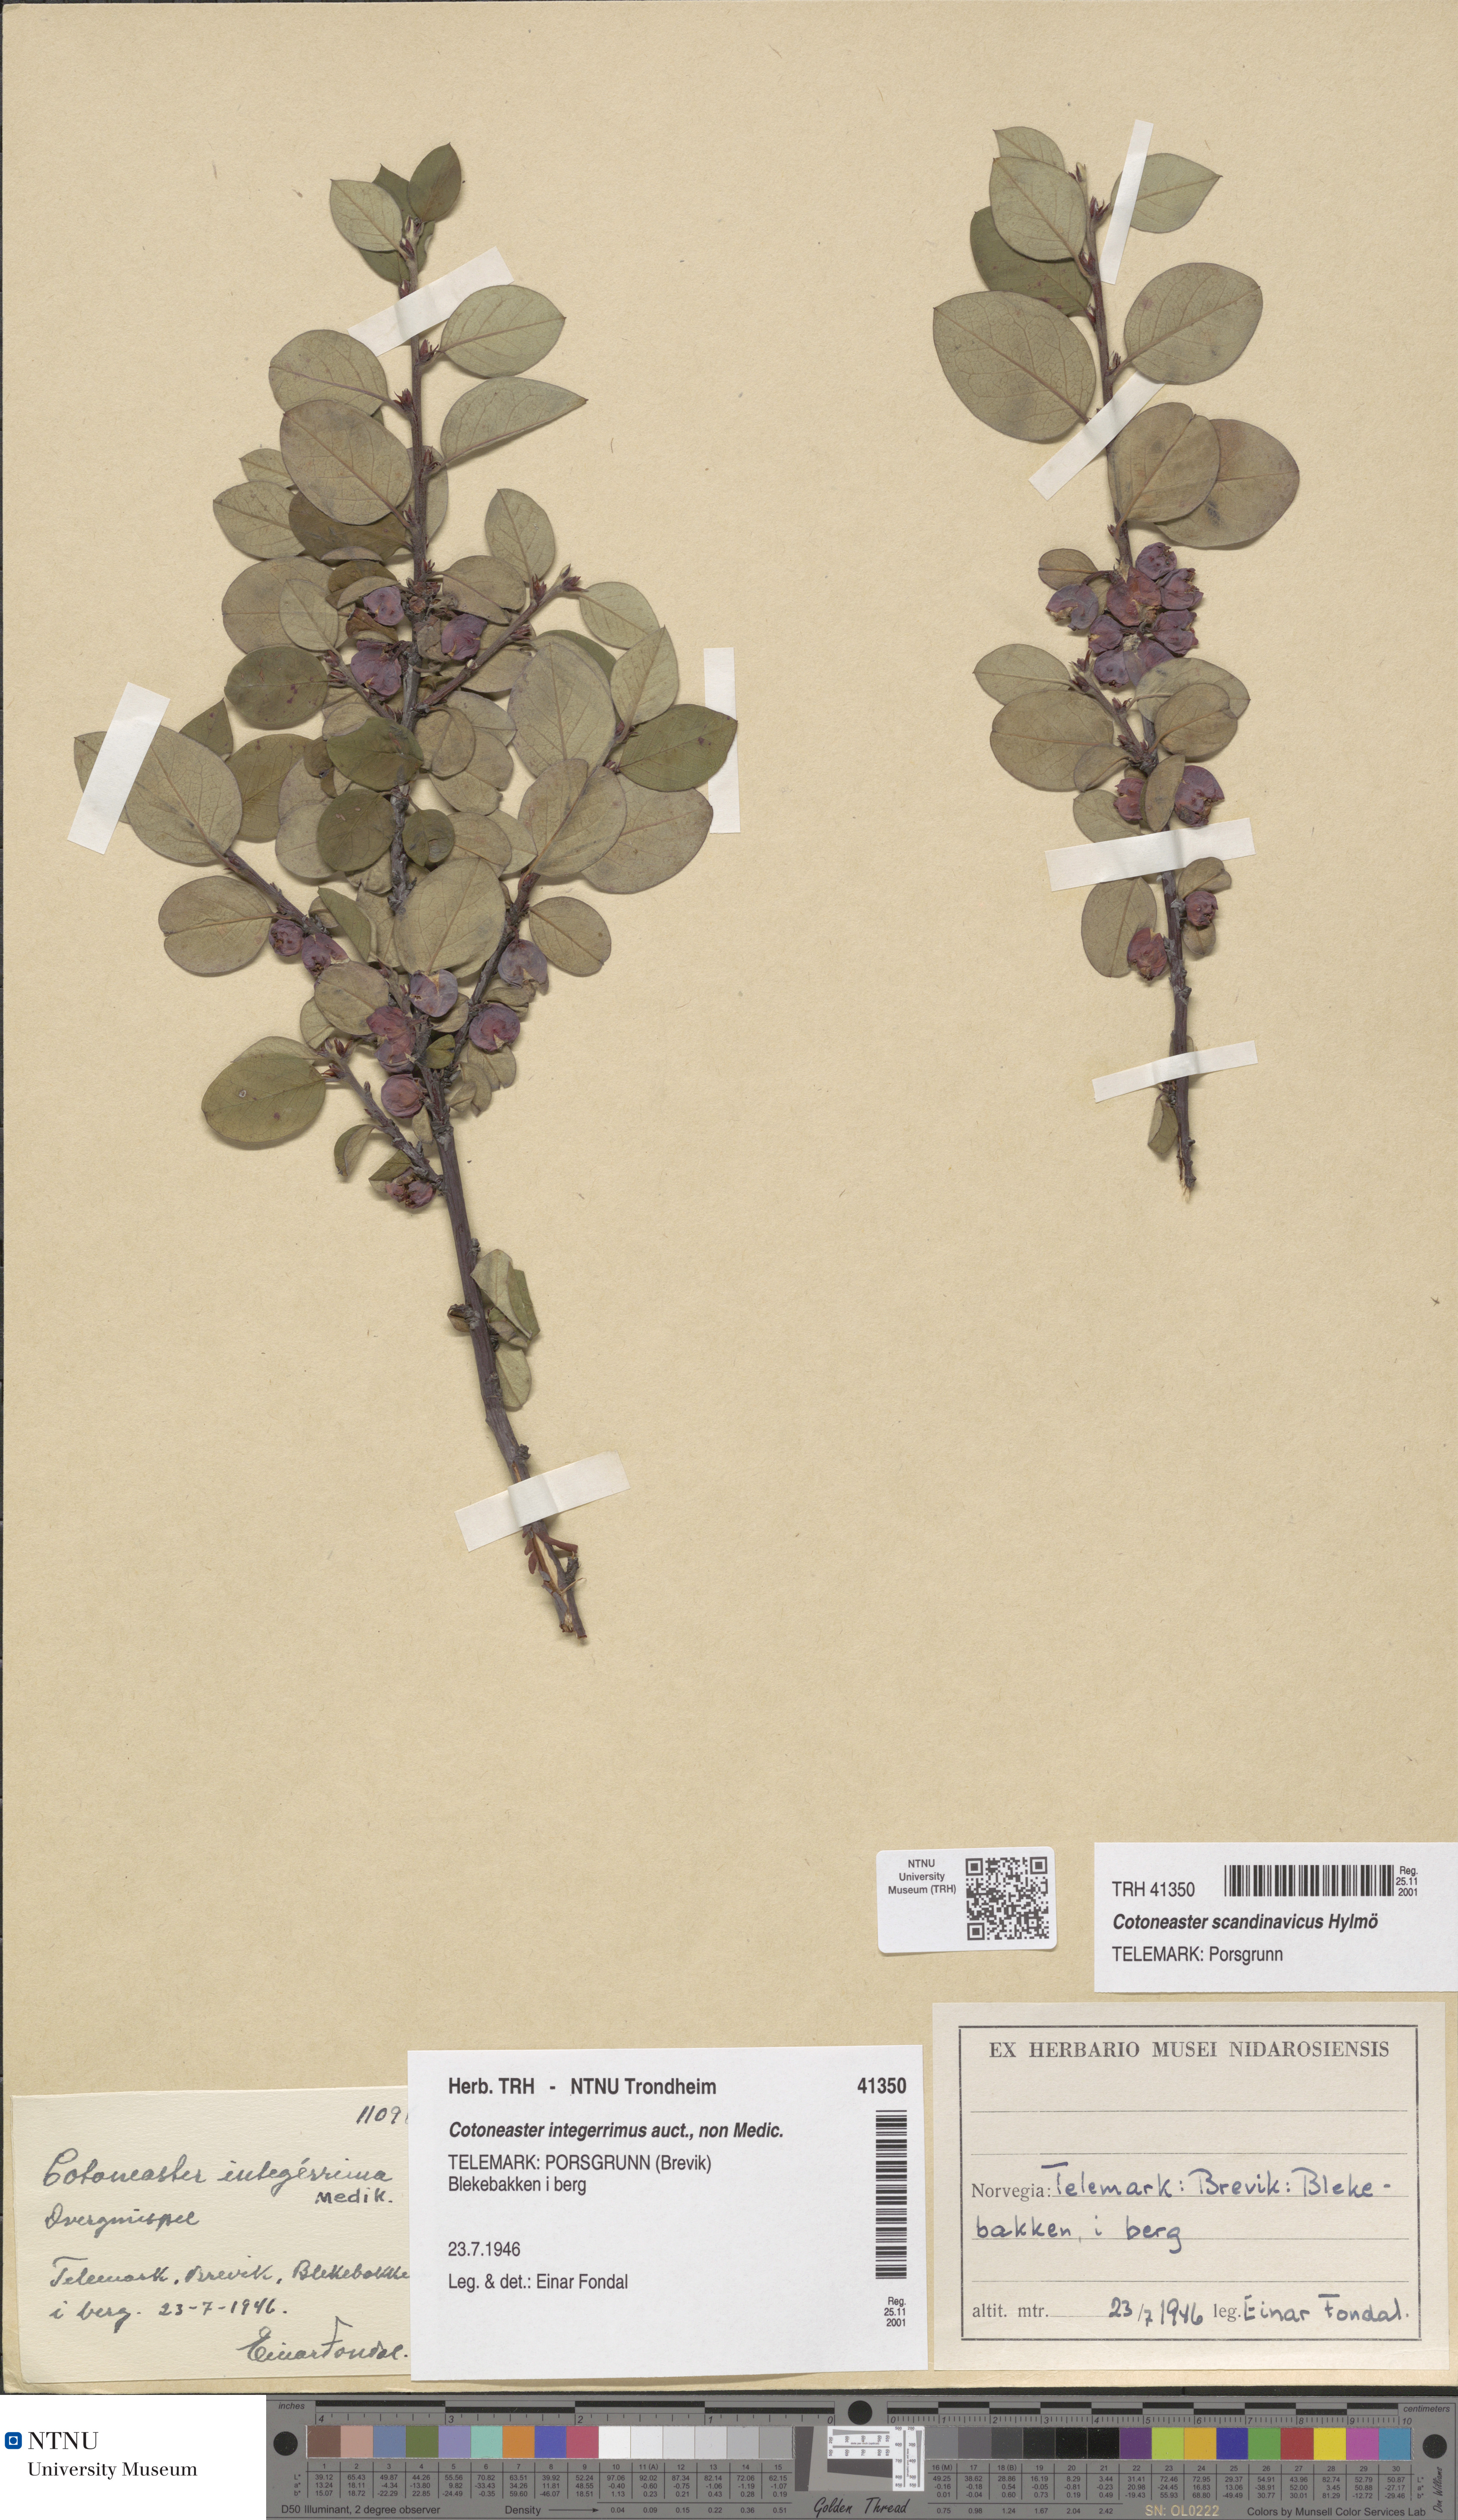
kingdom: Plantae
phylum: Tracheophyta
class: Magnoliopsida
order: Rosales
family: Rosaceae
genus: Cotoneaster
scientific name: Cotoneaster integerrimus
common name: Wild cotoneaster
